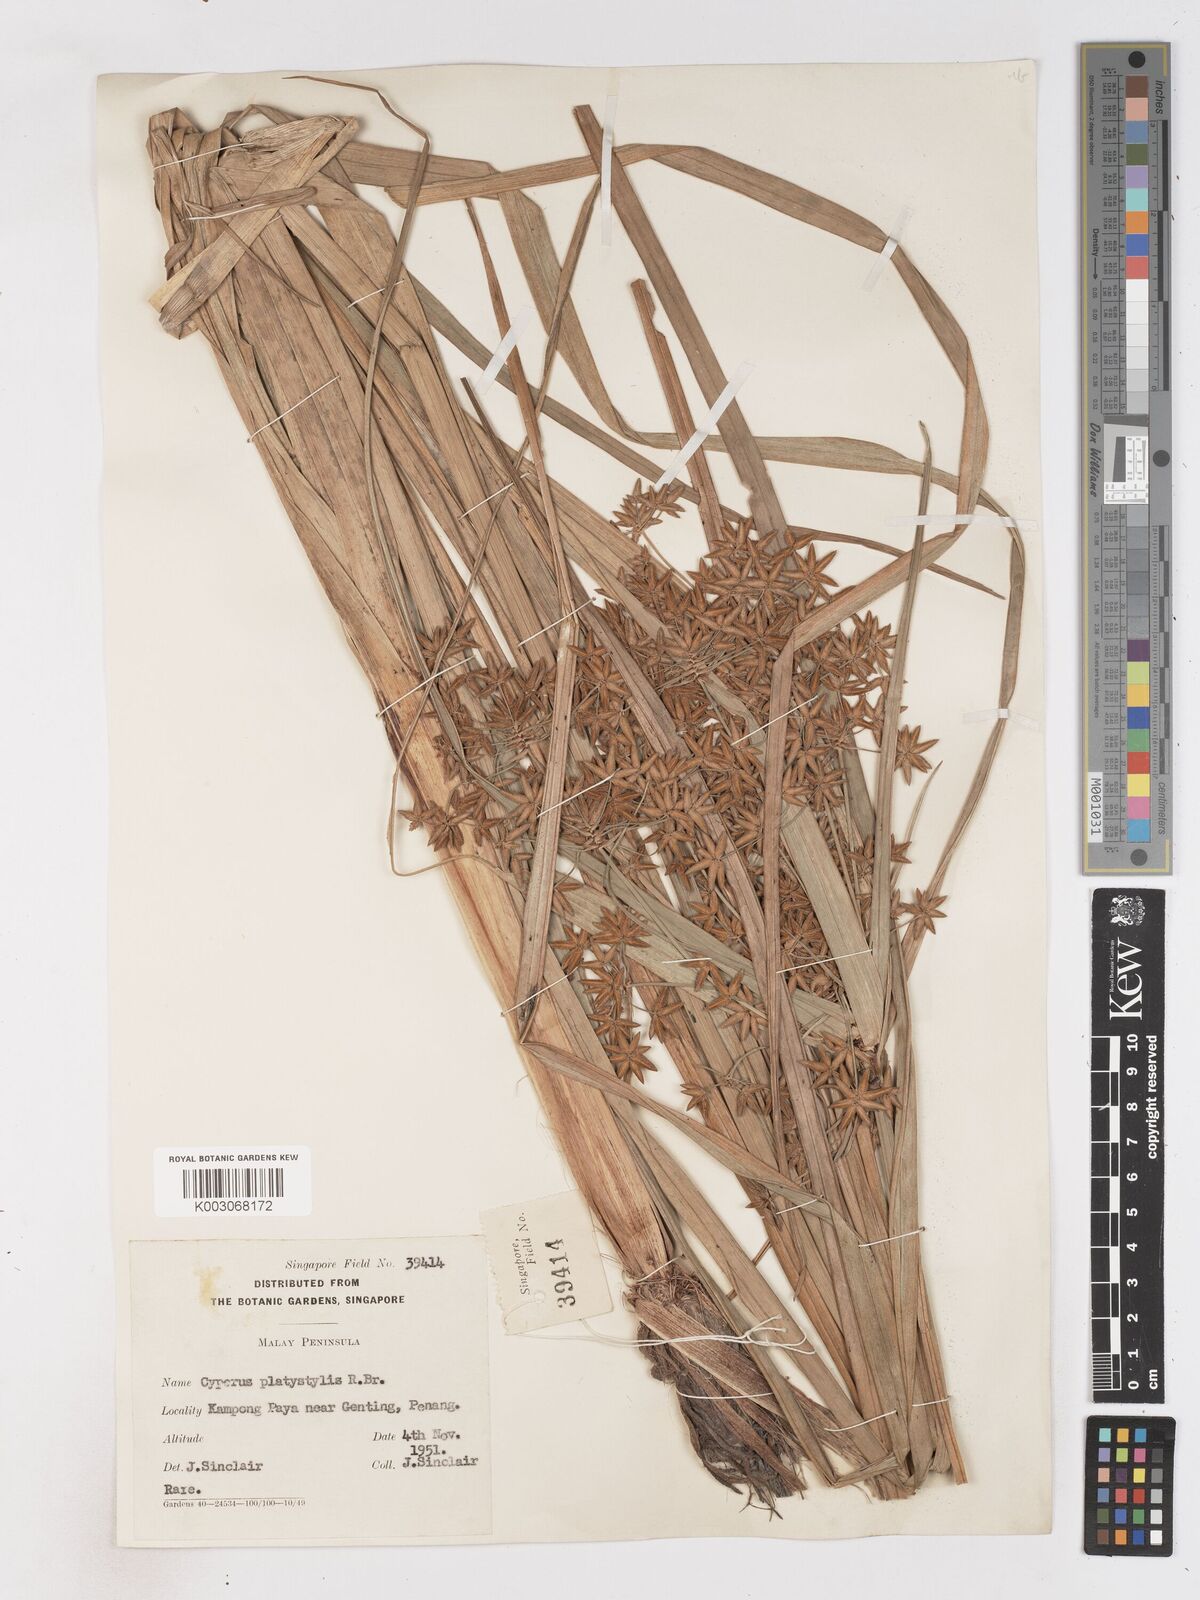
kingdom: Plantae
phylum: Tracheophyta
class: Liliopsida
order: Poales
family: Cyperaceae
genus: Cyperus
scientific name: Cyperus platystylis
